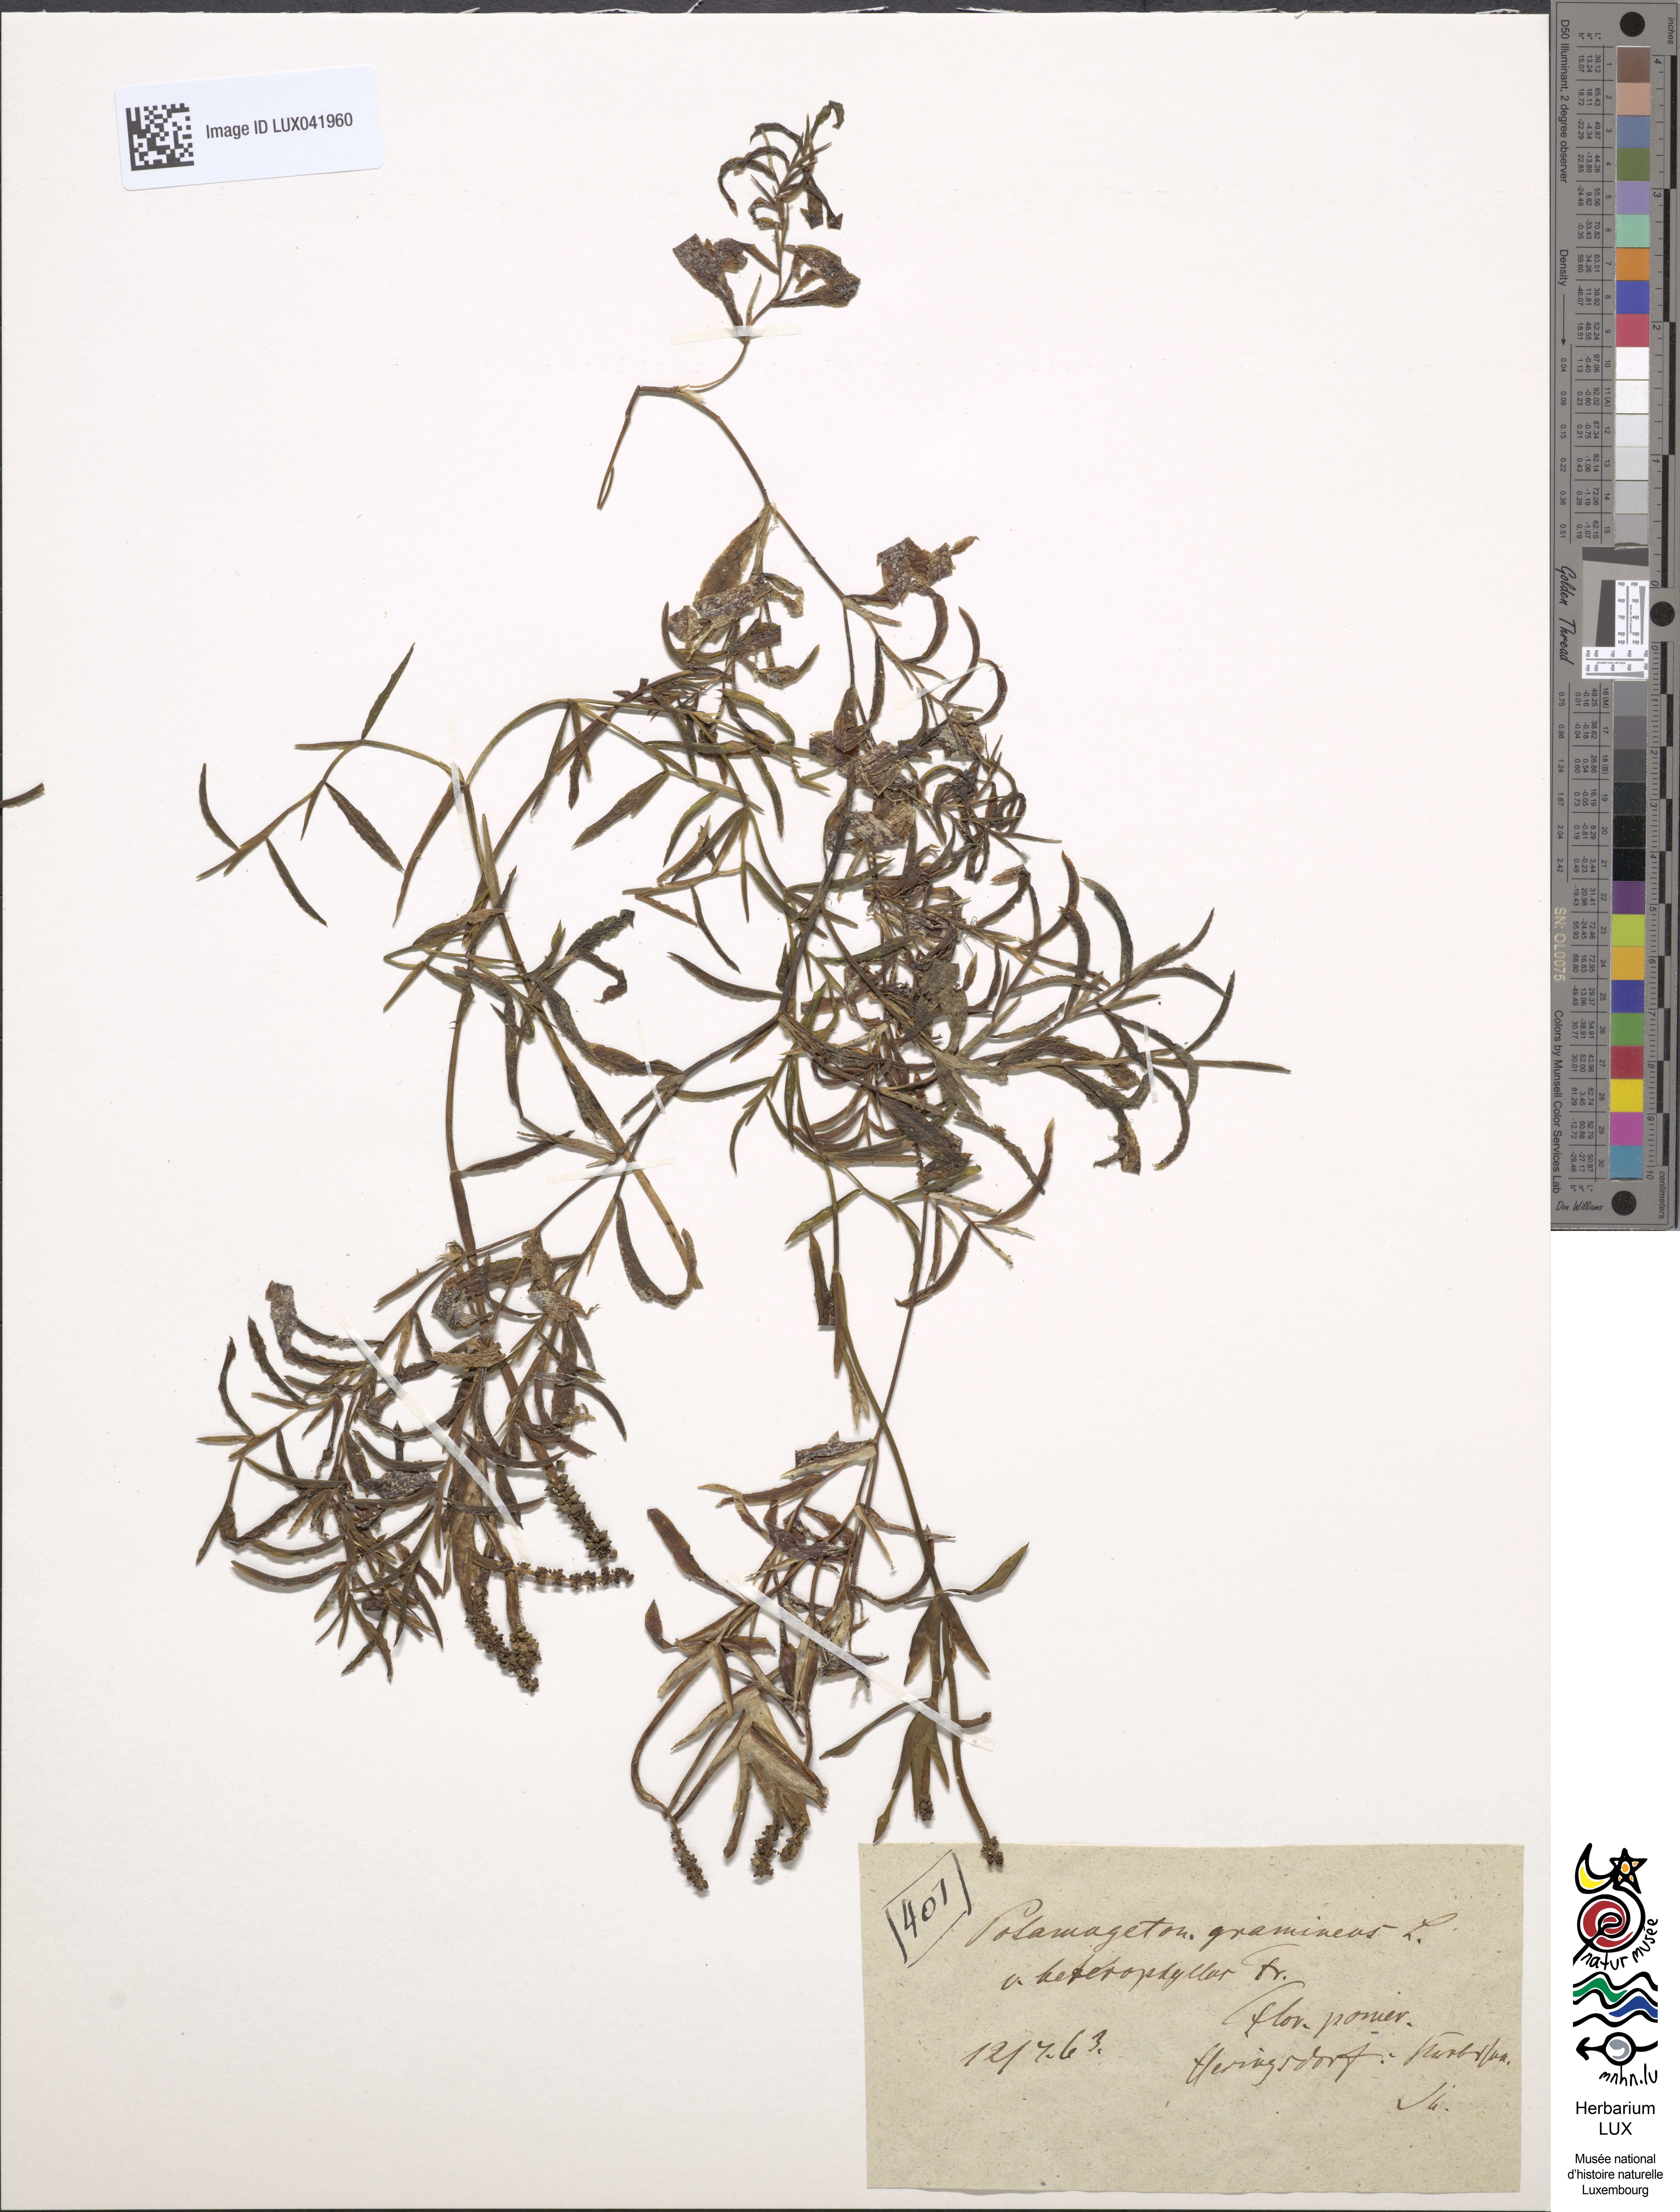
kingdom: Plantae
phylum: Tracheophyta
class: Liliopsida
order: Alismatales
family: Potamogetonaceae
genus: Potamogeton
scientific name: Potamogeton gramineus
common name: Various-leaved pondweed
